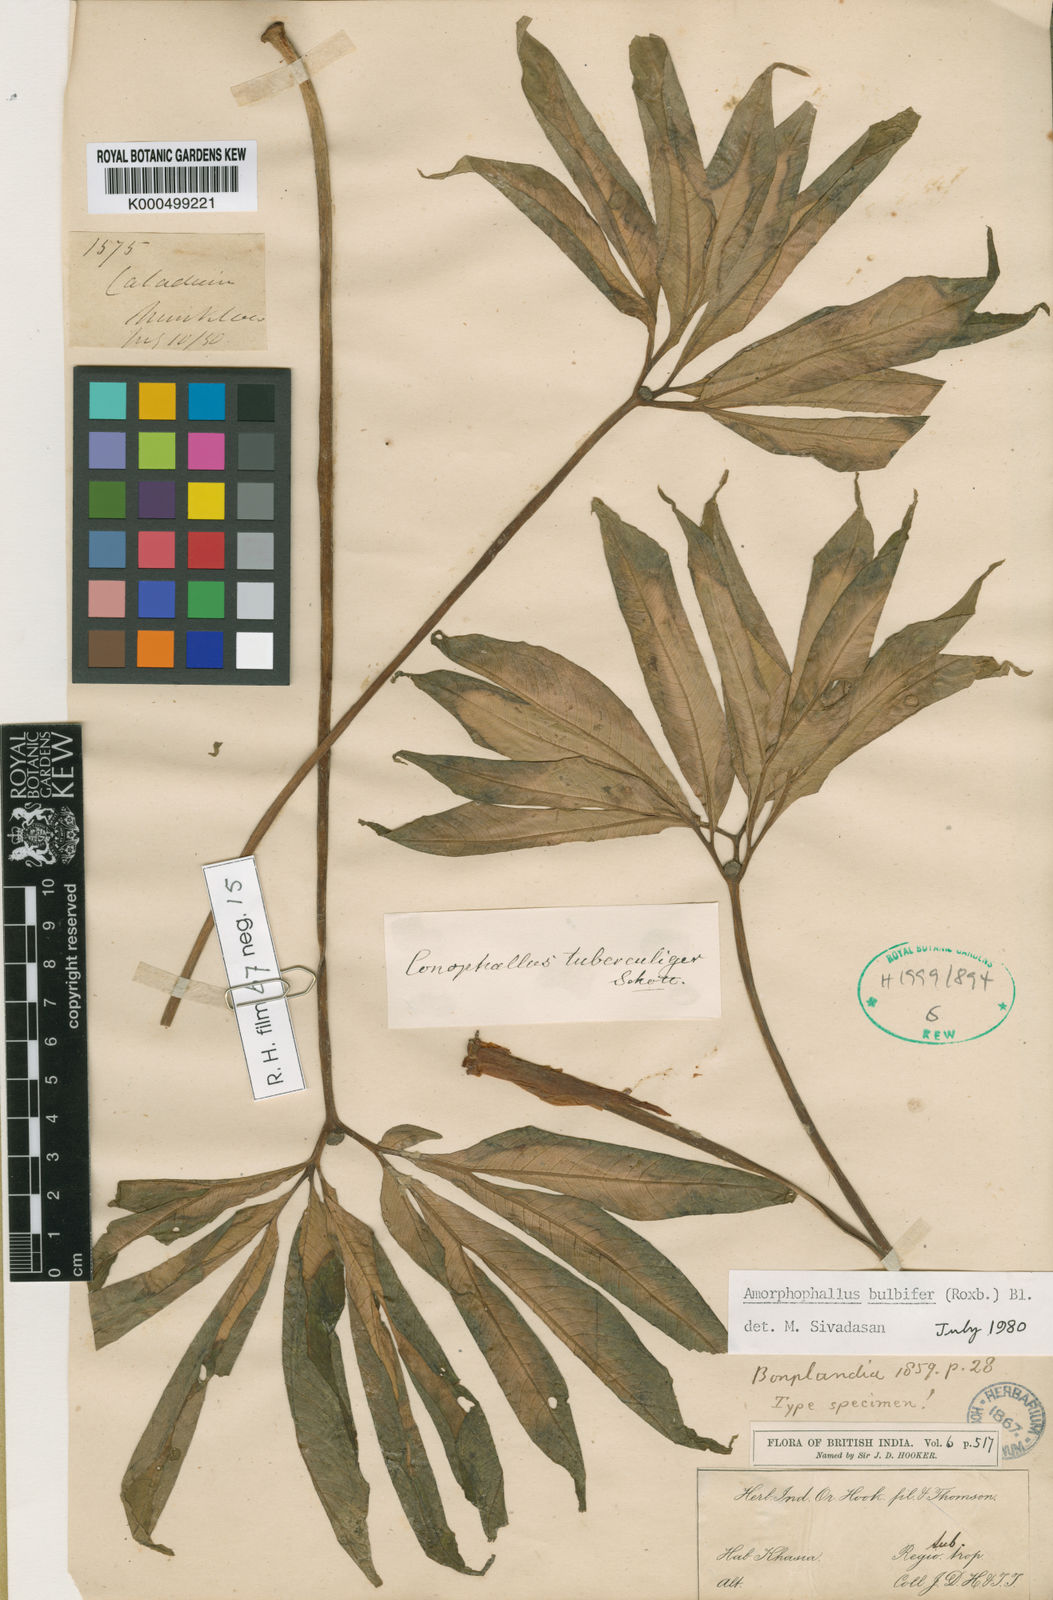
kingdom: Plantae
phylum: Tracheophyta
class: Liliopsida
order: Alismatales
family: Araceae
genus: Amorphophallus
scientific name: Amorphophallus bulbifer
